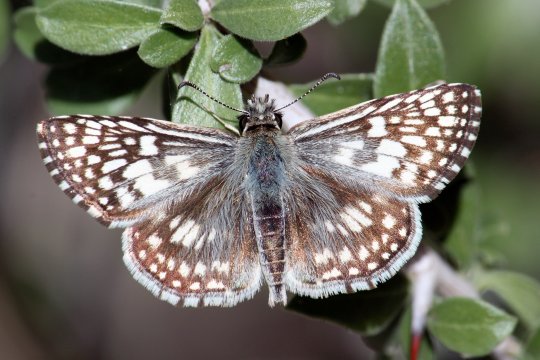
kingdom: Animalia
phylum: Arthropoda
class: Insecta
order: Lepidoptera
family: Hesperiidae
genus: Pyrgus
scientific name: Pyrgus oileus
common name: Desert Checkered-Skipper
